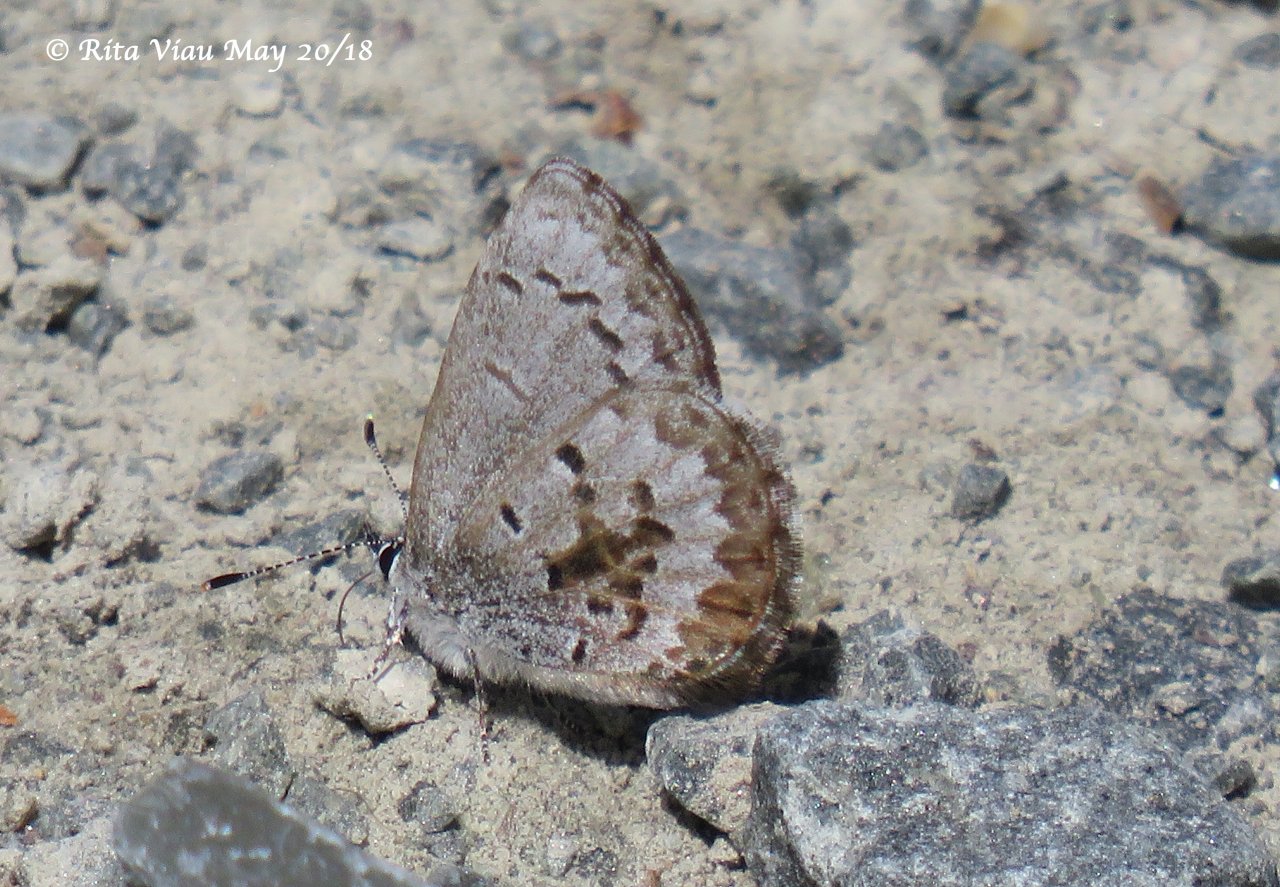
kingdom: Animalia
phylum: Arthropoda
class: Insecta
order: Lepidoptera
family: Lycaenidae
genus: Celastrina
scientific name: Celastrina lucia
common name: Northern Spring Azure
